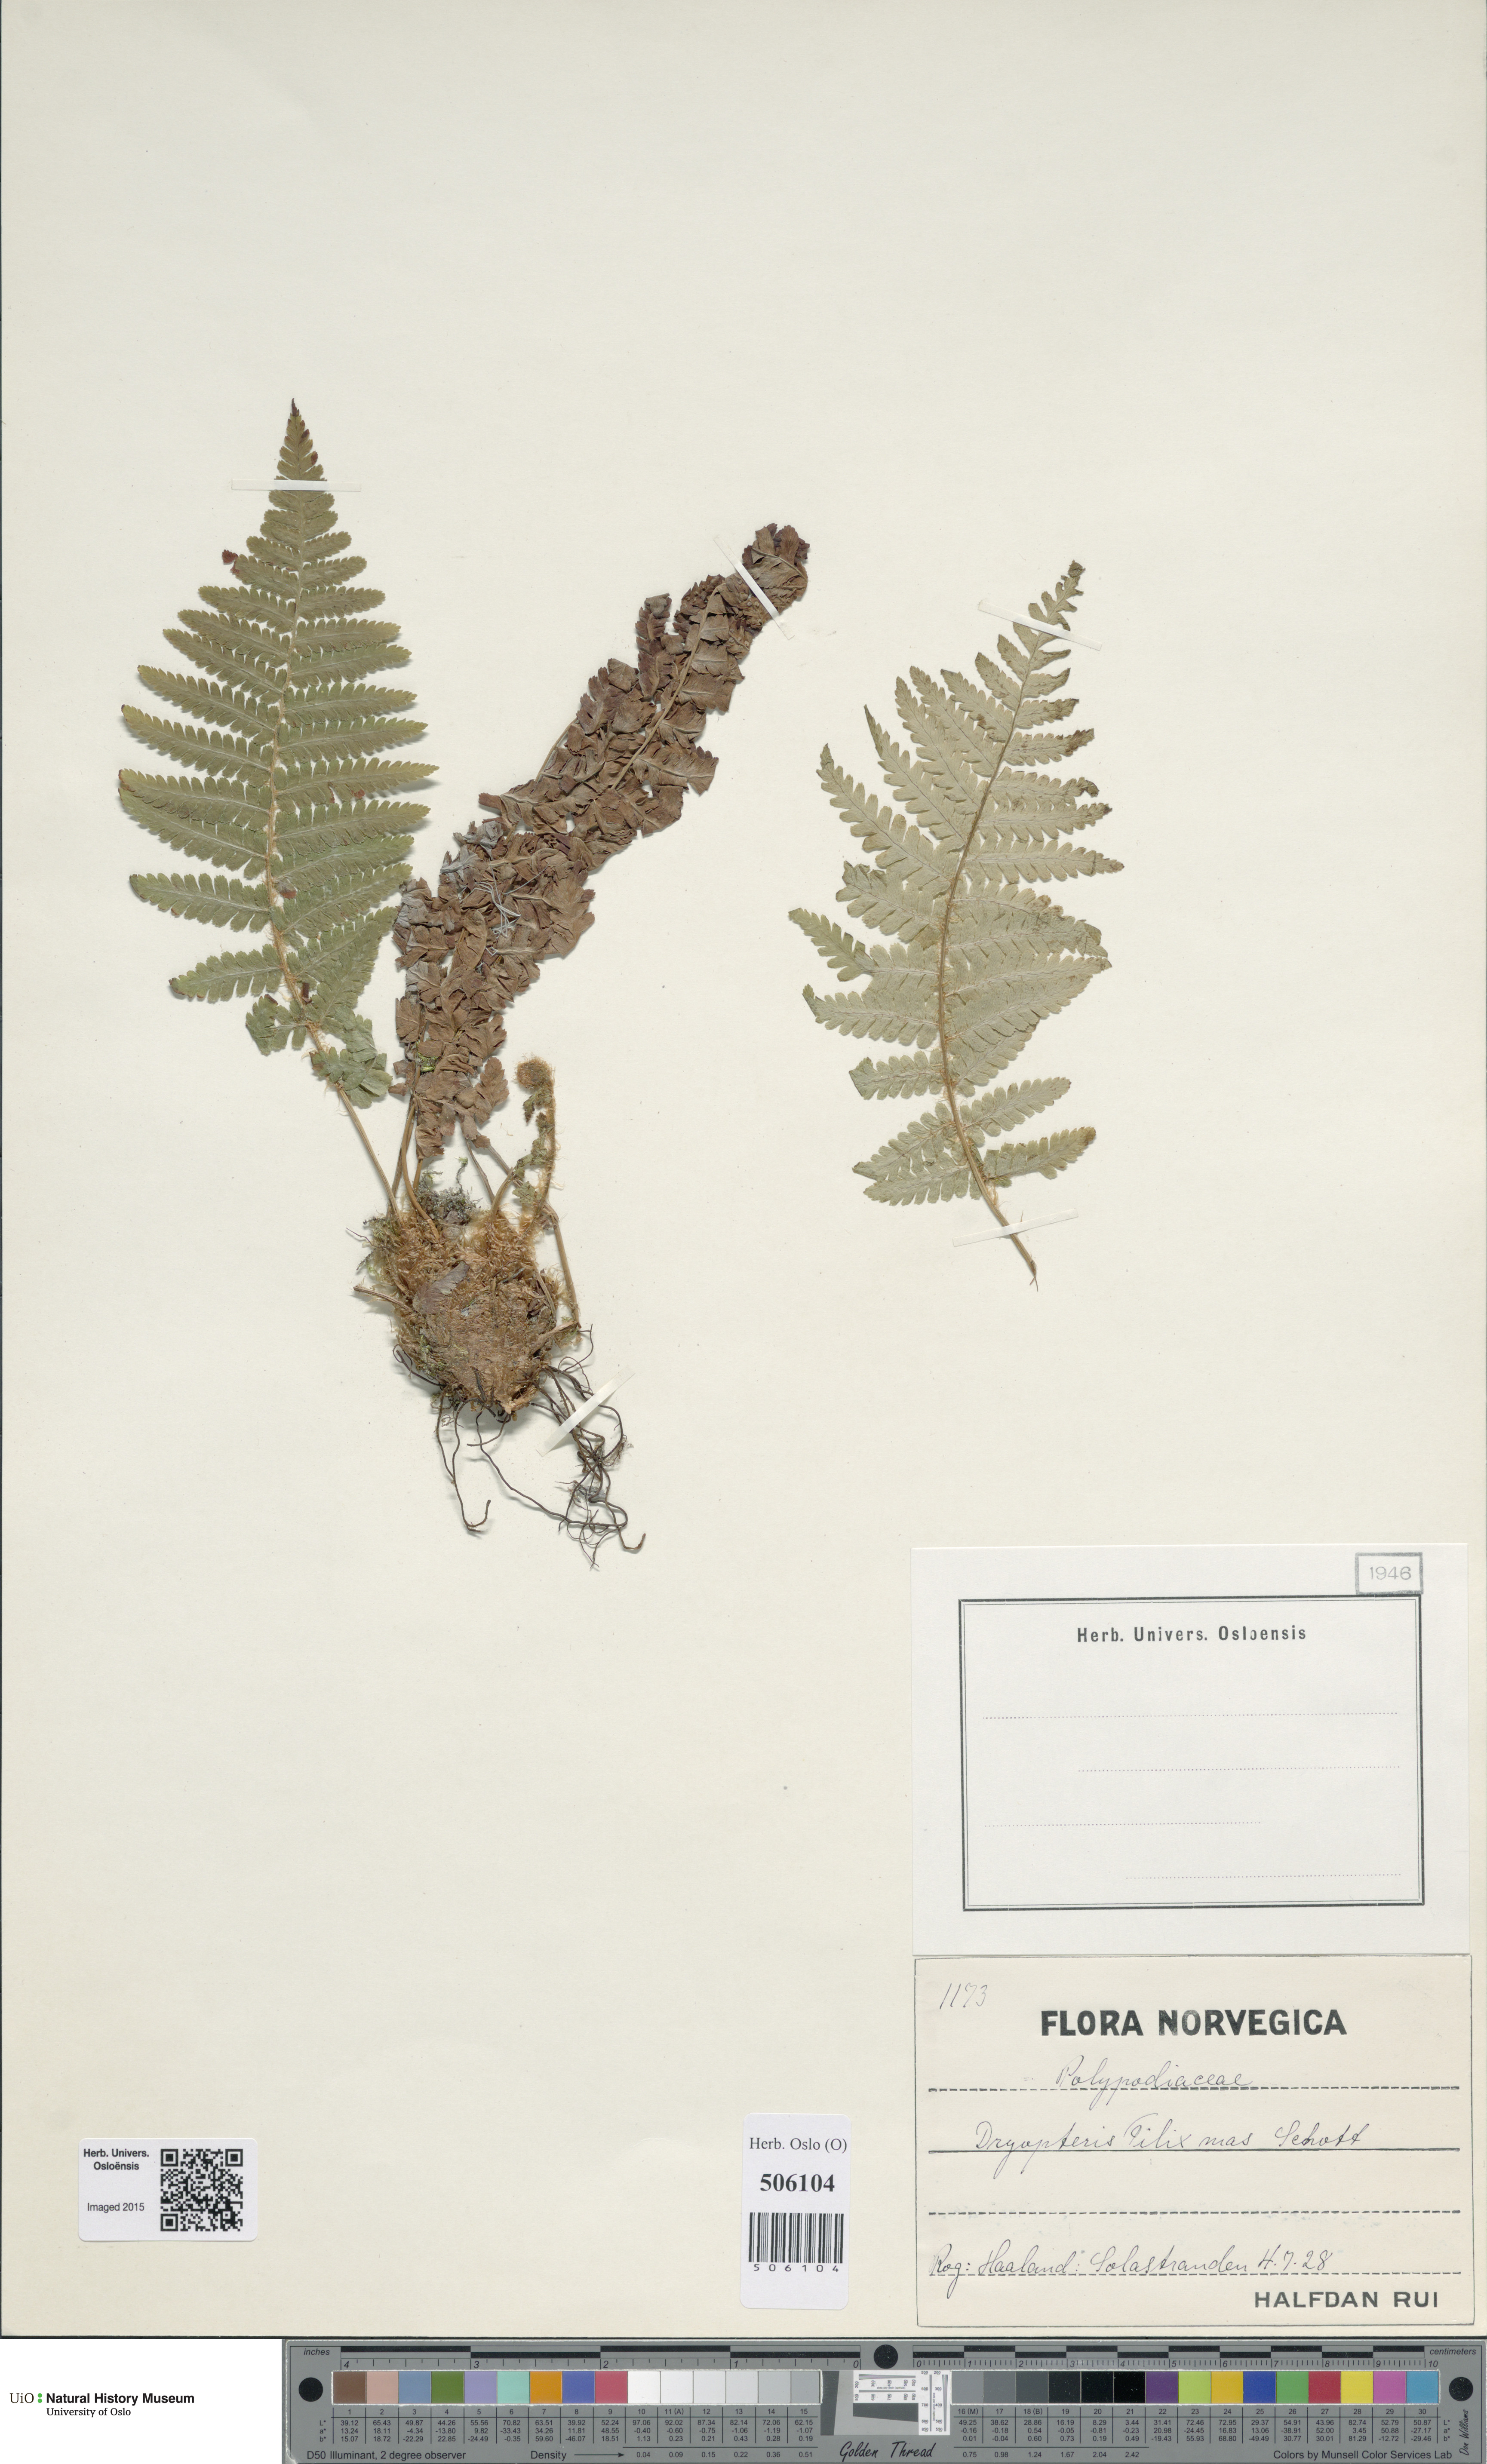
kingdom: Plantae
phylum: Tracheophyta
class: Polypodiopsida
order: Polypodiales
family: Dryopteridaceae
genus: Dryopteris
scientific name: Dryopteris filix-mas
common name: Male fern
